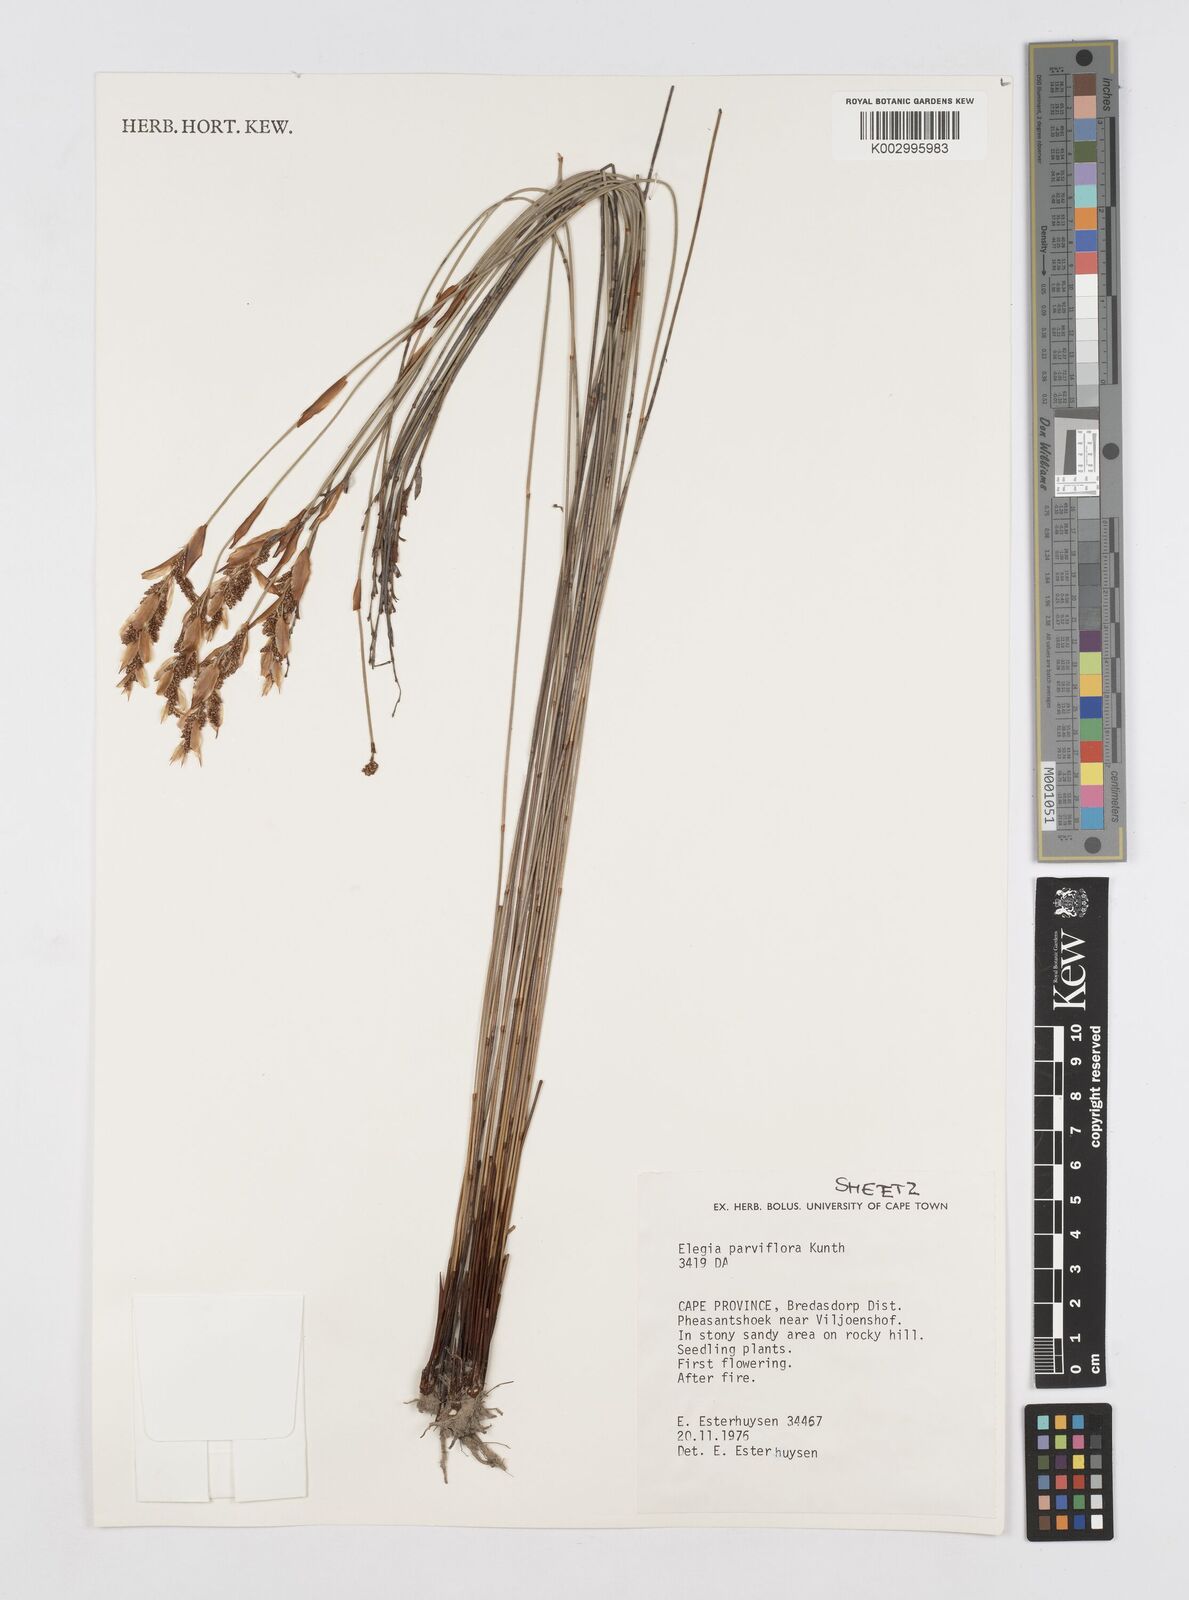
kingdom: Plantae
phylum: Tracheophyta
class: Liliopsida
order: Poales
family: Restionaceae
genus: Cannomois
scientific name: Cannomois parviflora
